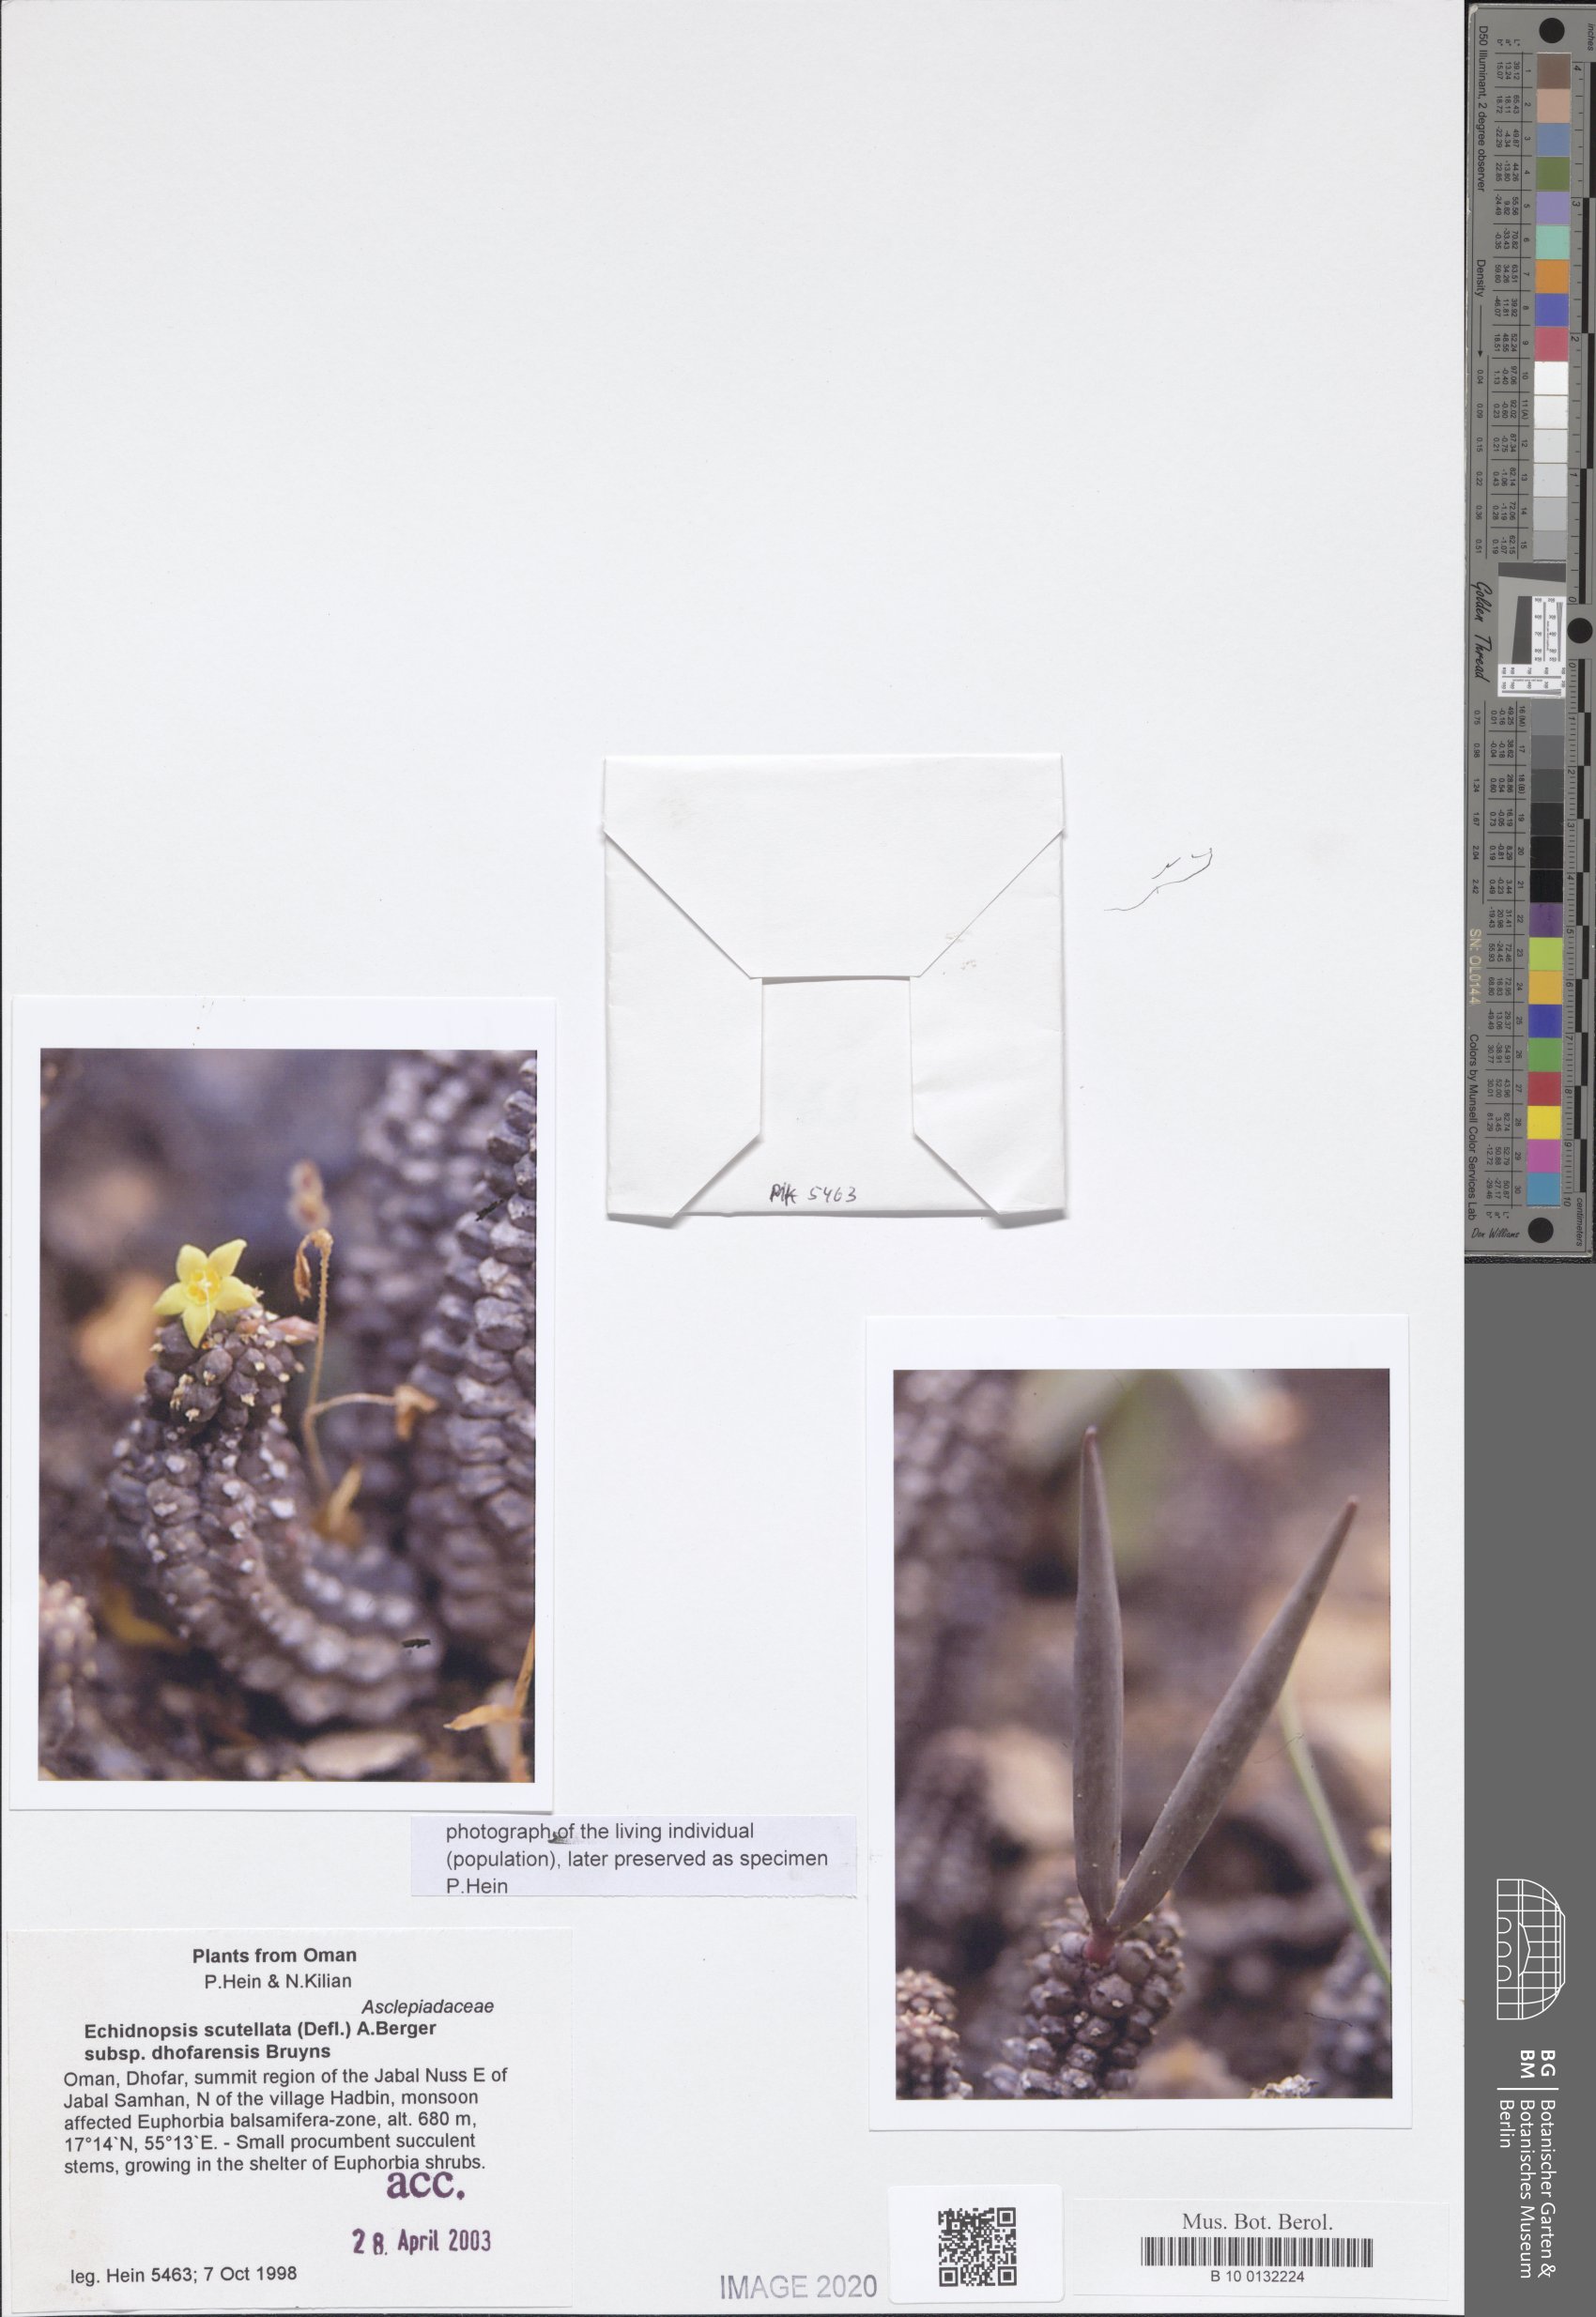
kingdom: Plantae
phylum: Tracheophyta
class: Magnoliopsida
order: Gentianales
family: Apocynaceae
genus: Ceropegia
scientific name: Ceropegia scutellata
